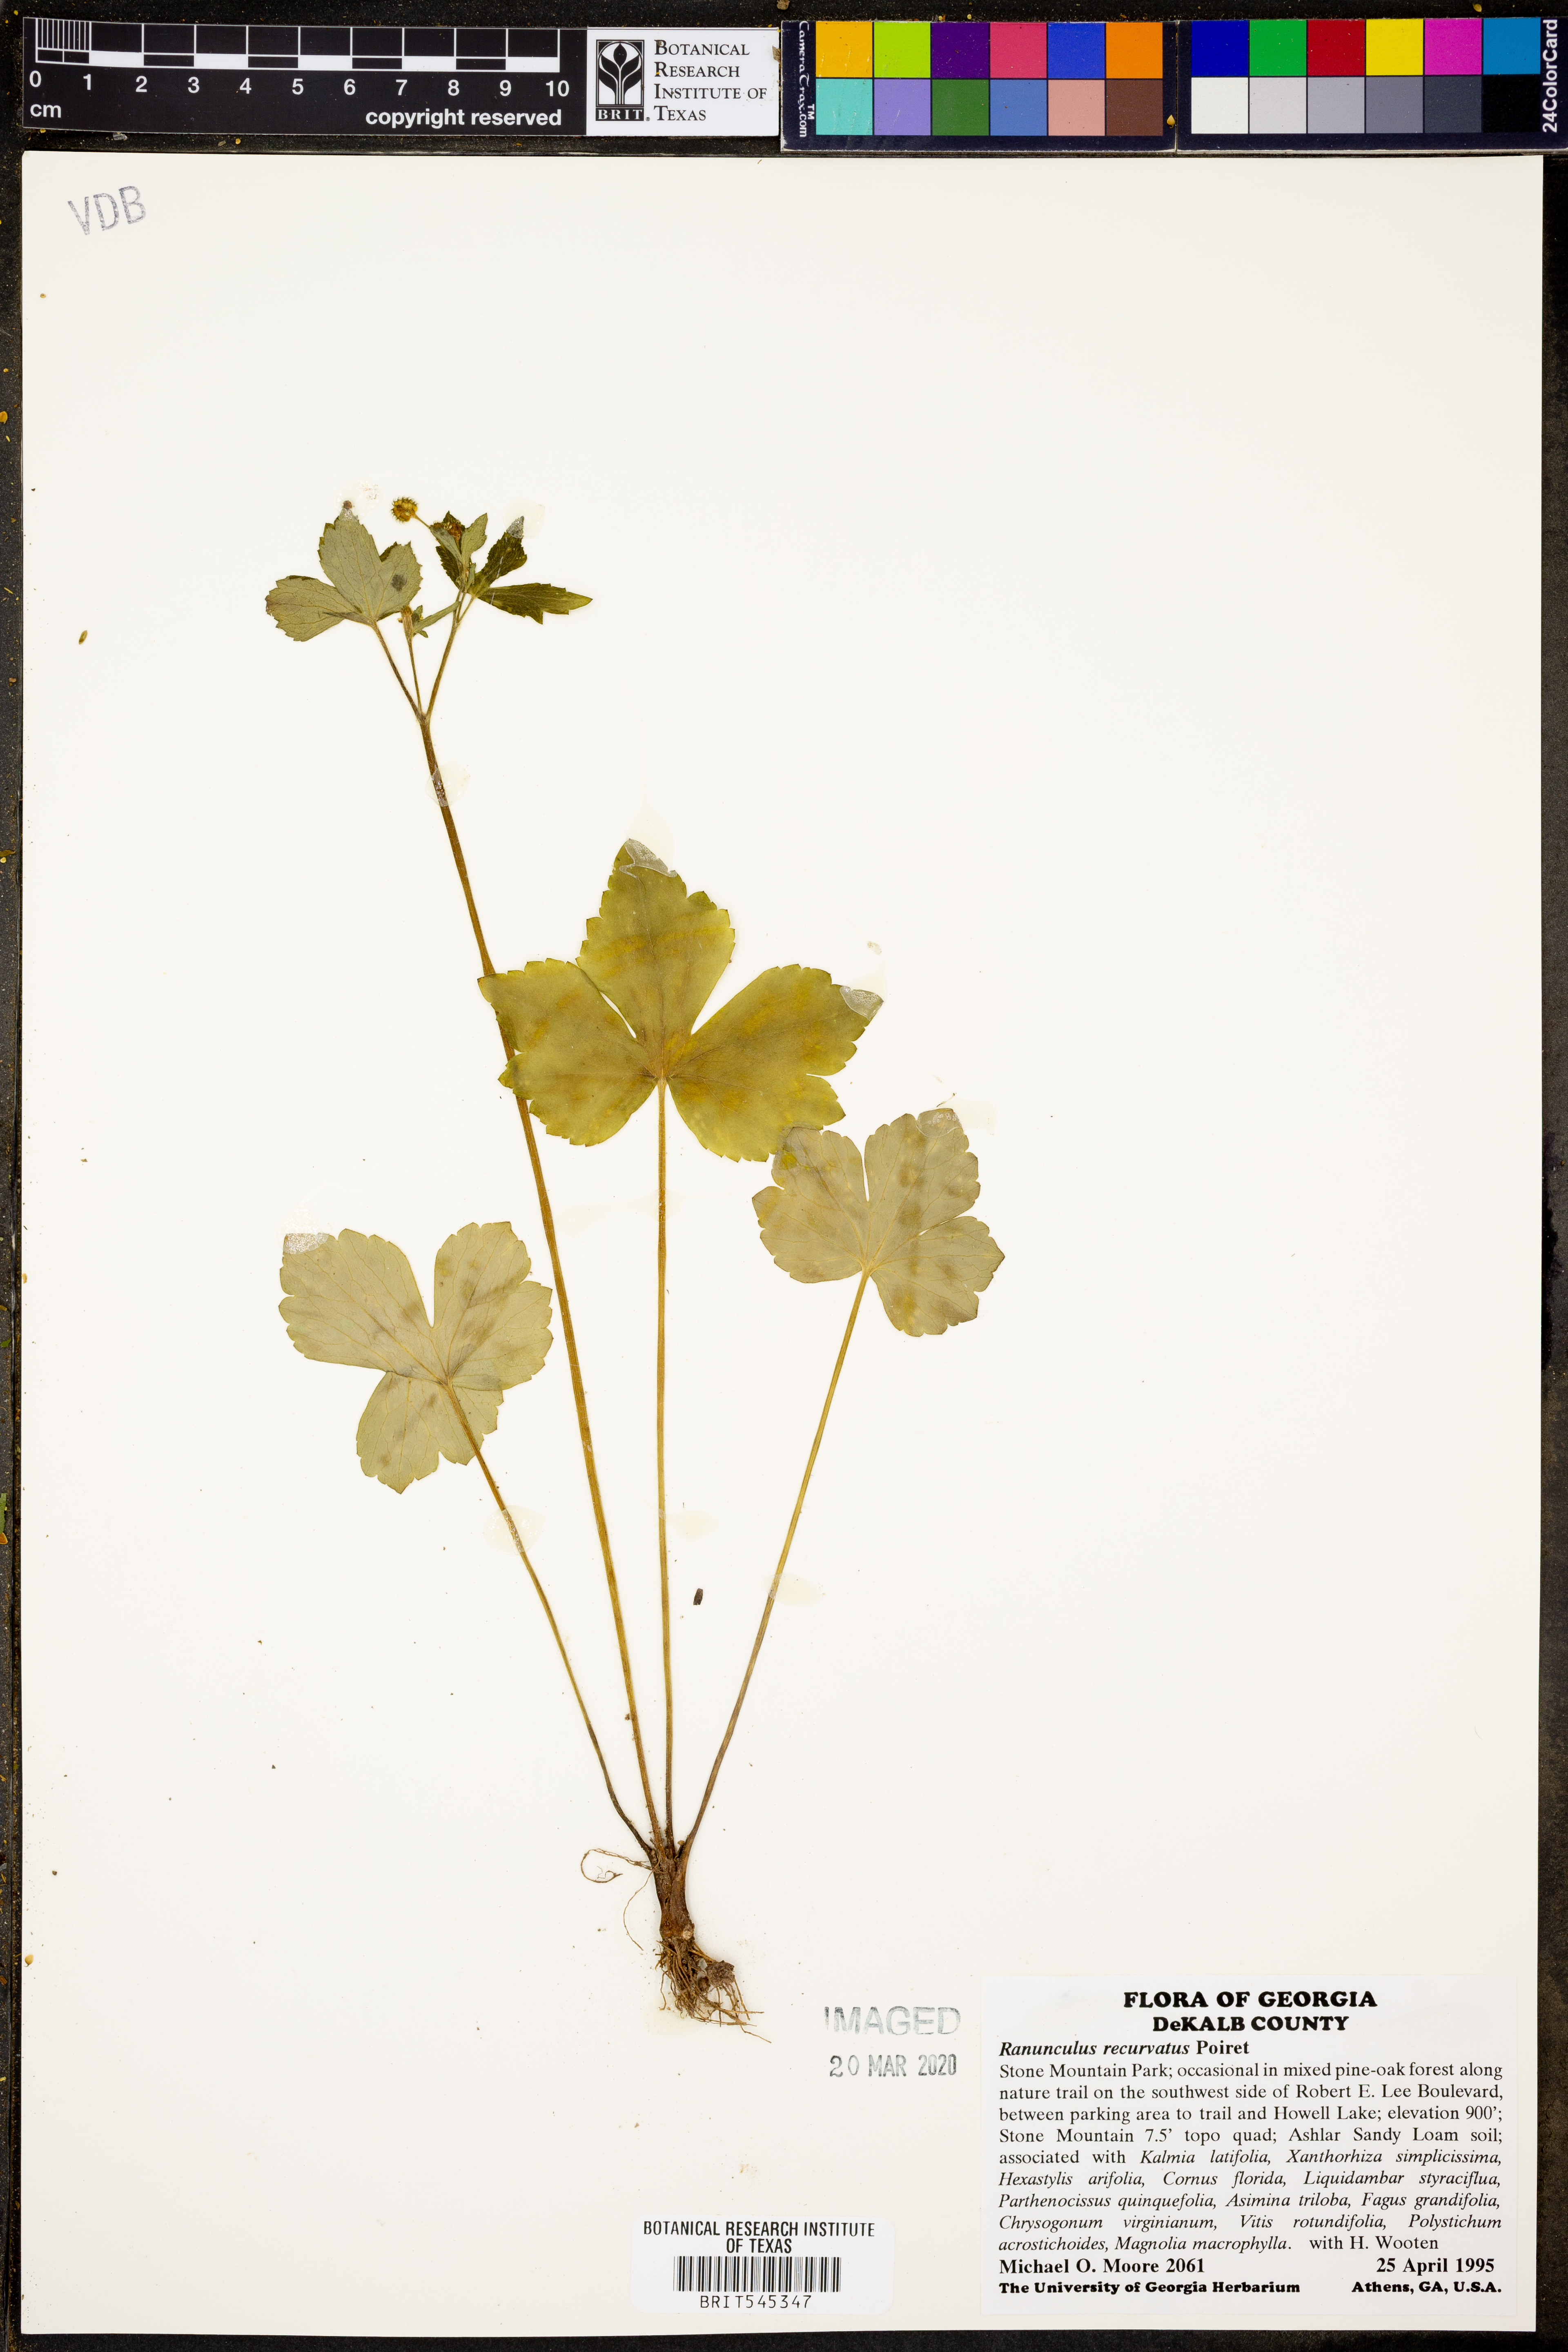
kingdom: Plantae
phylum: Tracheophyta
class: Magnoliopsida
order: Ranunculales
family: Ranunculaceae
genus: Ranunculus
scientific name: Ranunculus recurvatus
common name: Blisterwort
